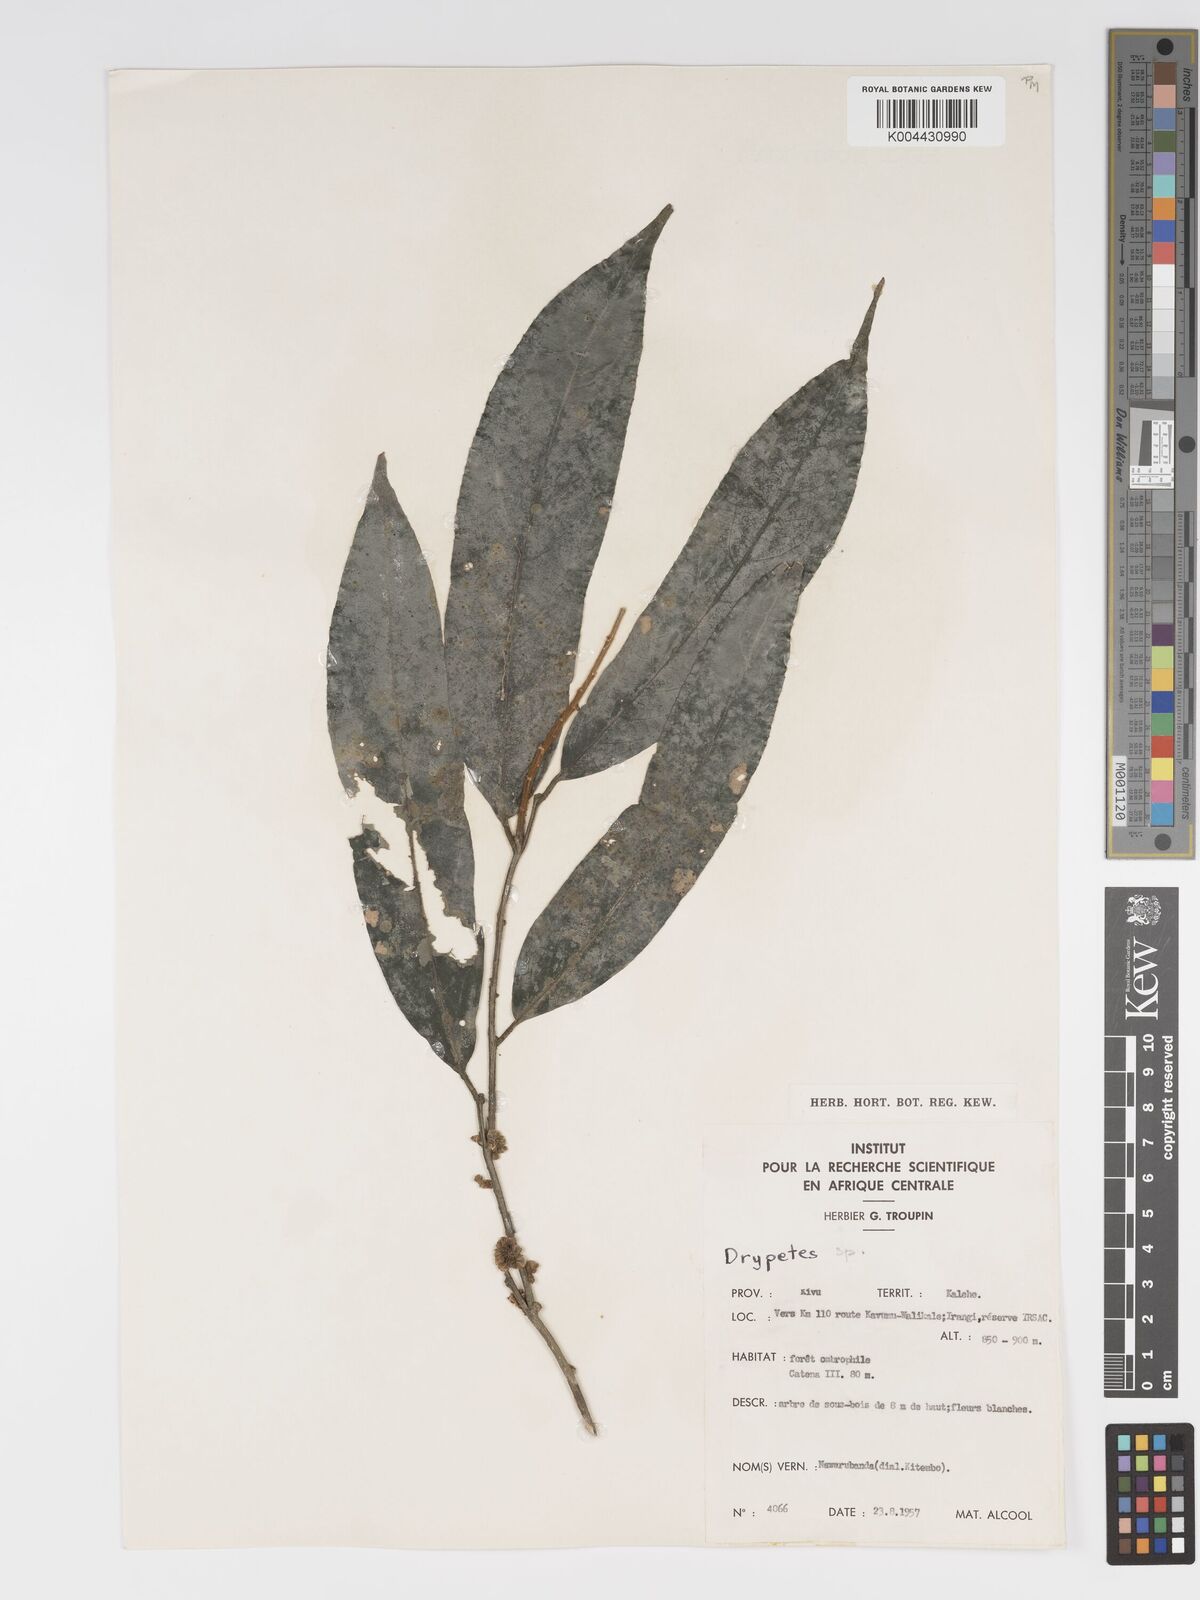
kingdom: Plantae
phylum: Tracheophyta
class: Magnoliopsida
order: Malpighiales
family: Putranjivaceae
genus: Drypetes
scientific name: Drypetes
